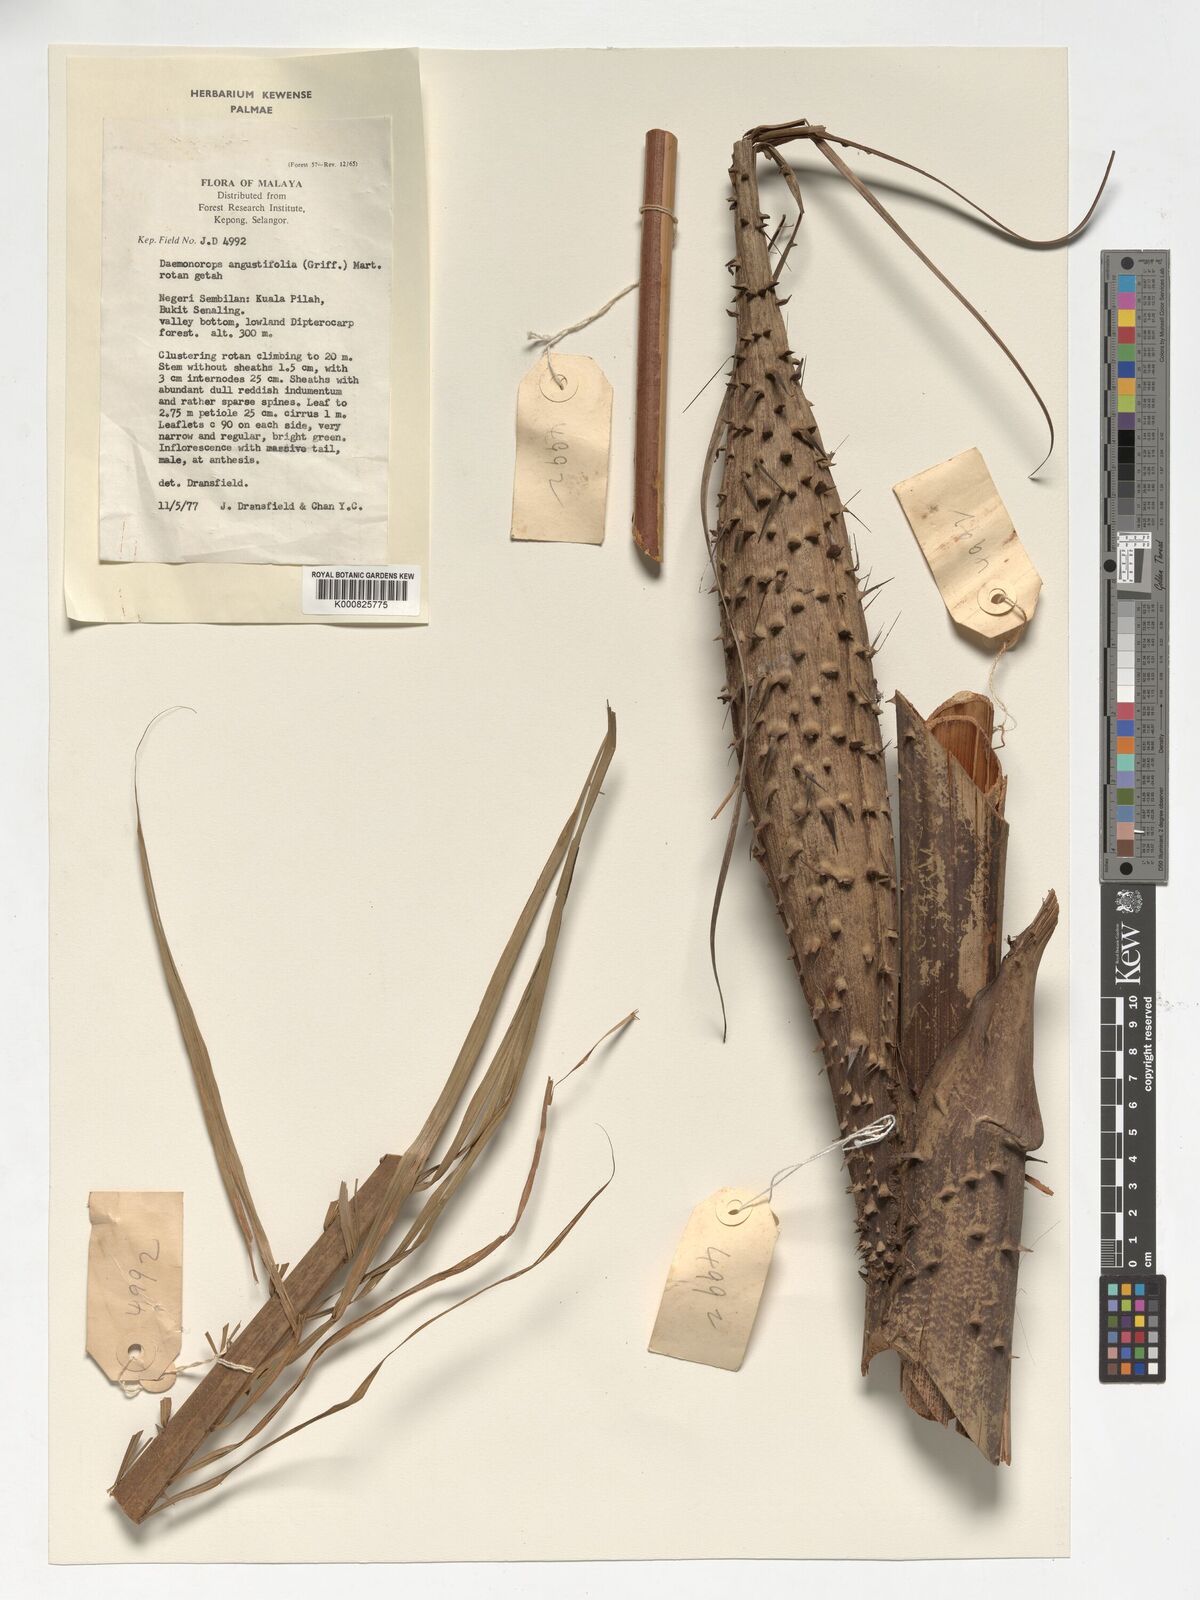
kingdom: Plantae
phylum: Tracheophyta
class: Liliopsida
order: Arecales
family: Arecaceae
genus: Calamus
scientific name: Calamus melanochaetes
